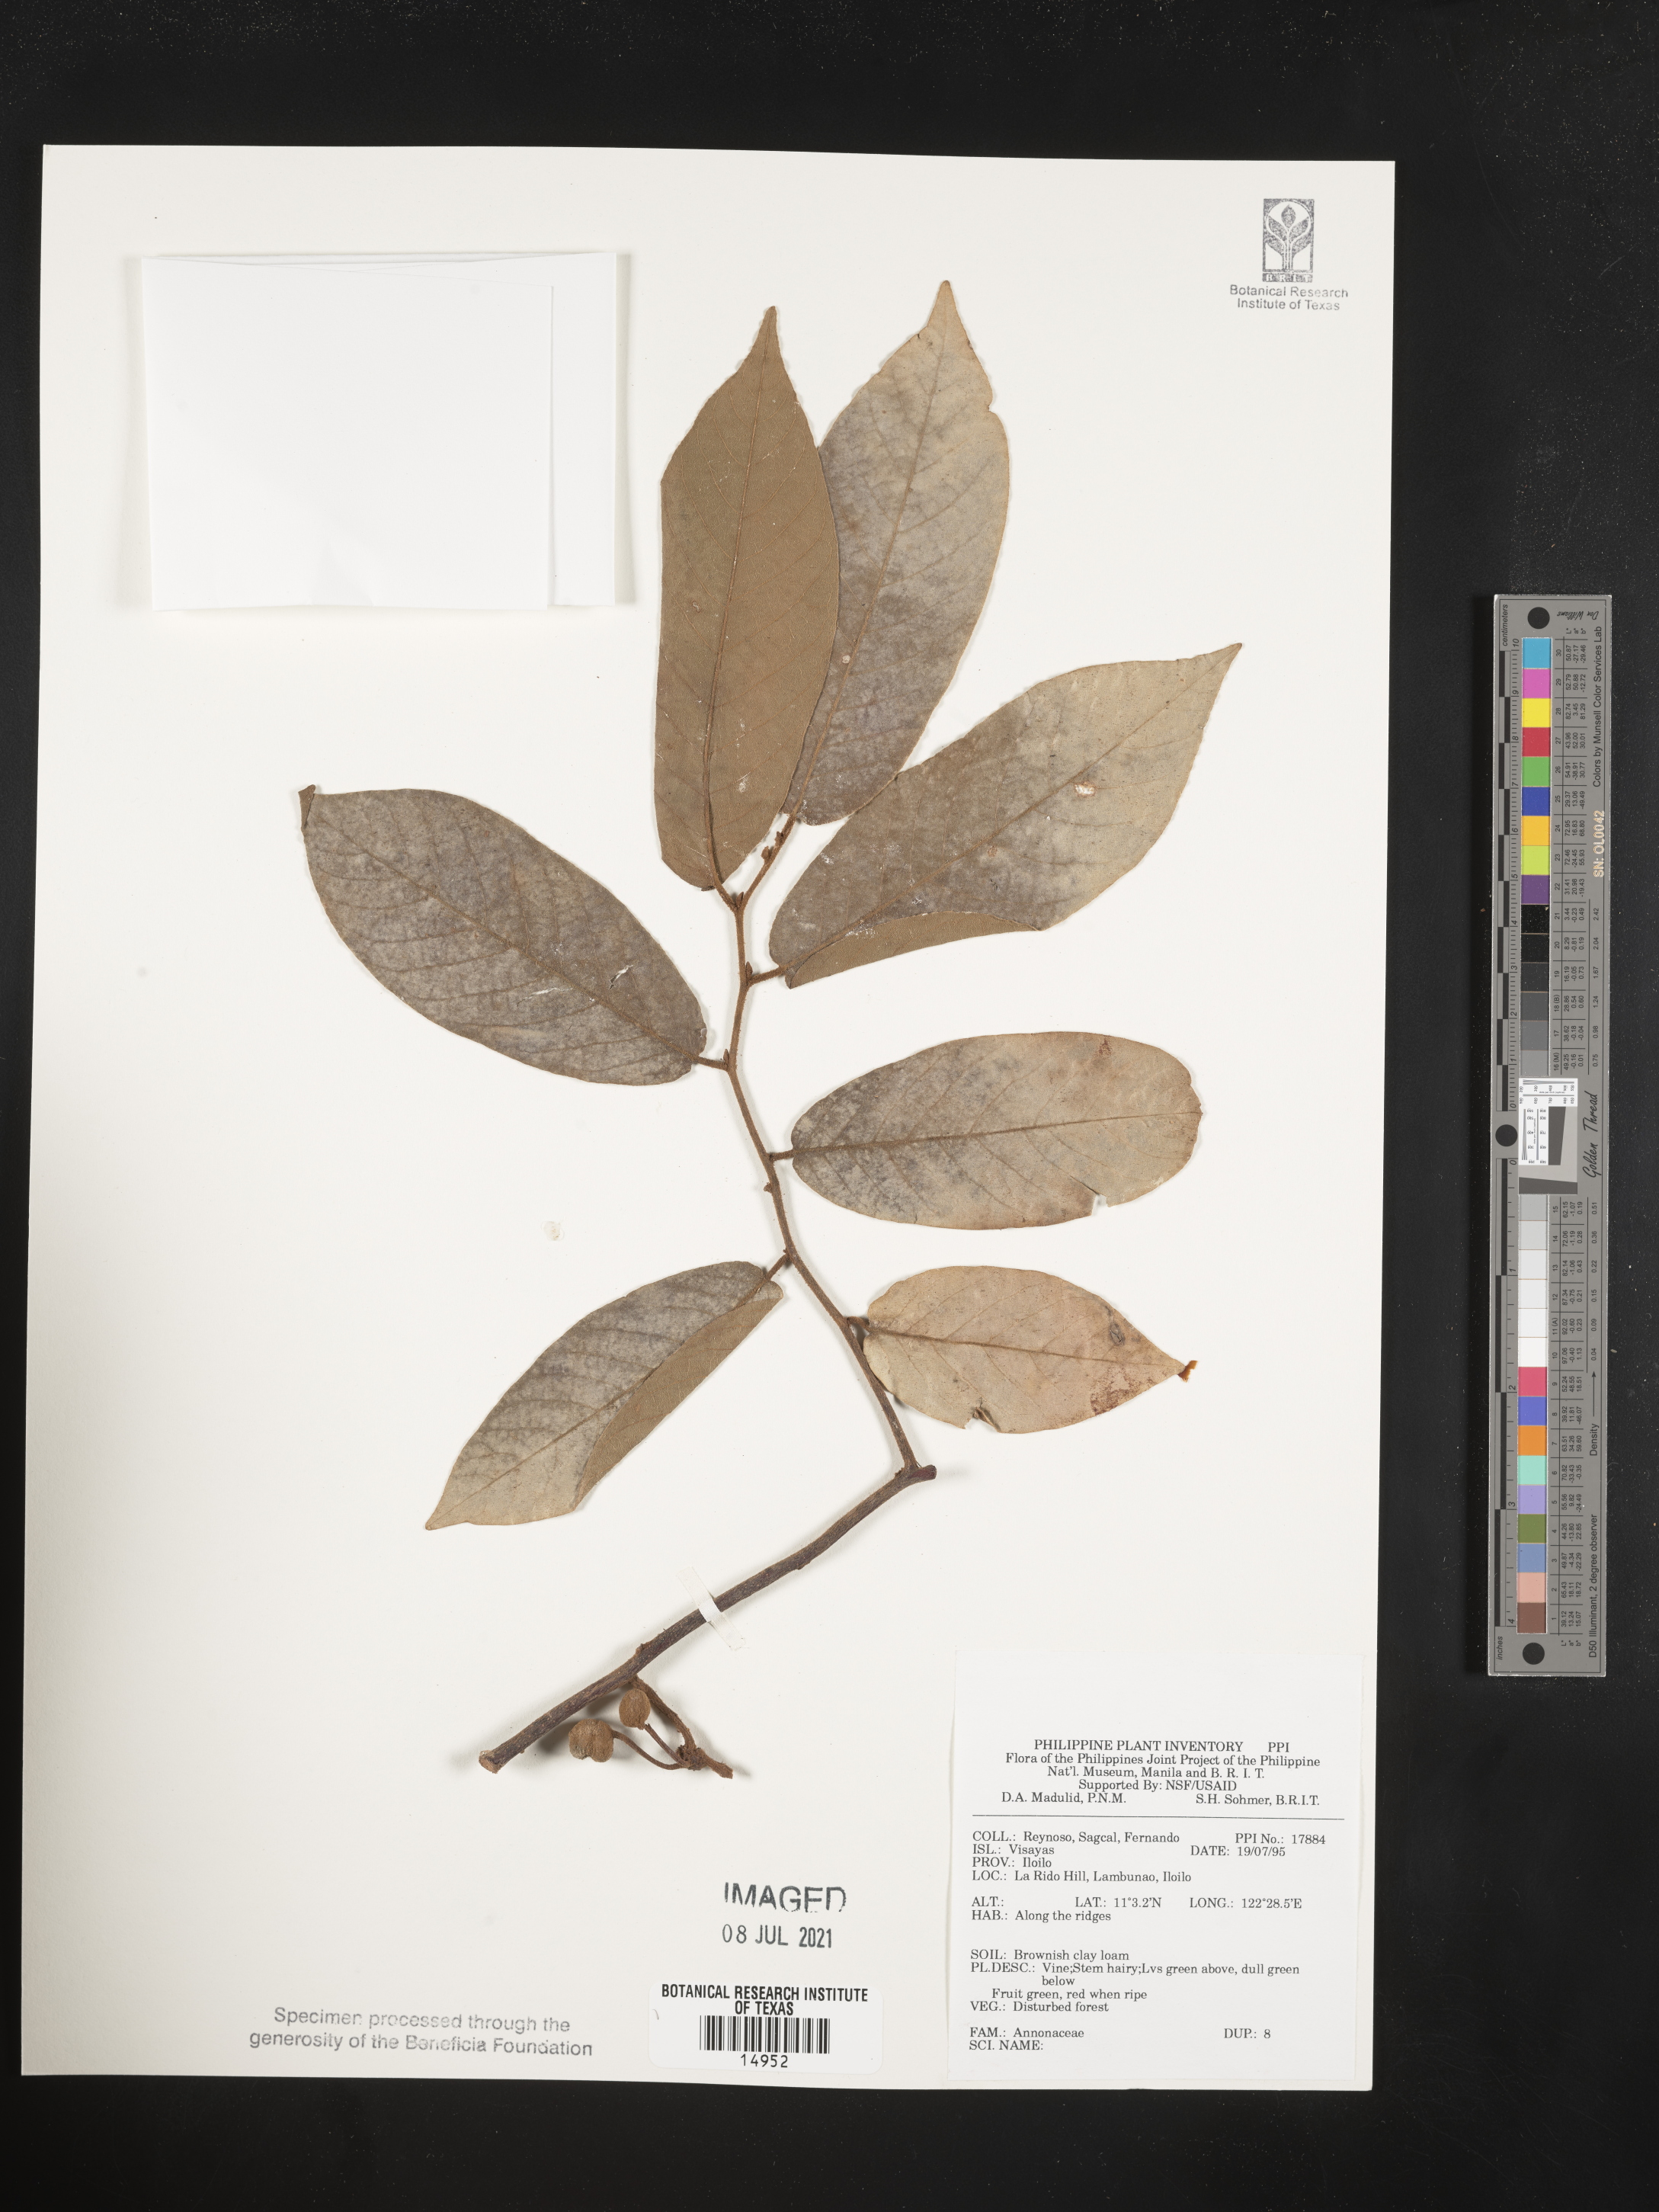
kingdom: Plantae
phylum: Tracheophyta
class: Magnoliopsida
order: Magnoliales
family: Annonaceae
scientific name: Annonaceae
